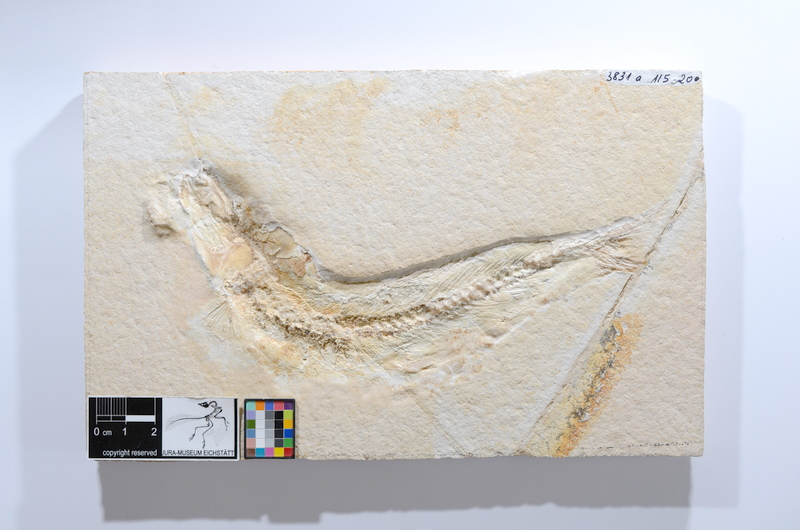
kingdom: Animalia
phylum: Chordata
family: Ascalaboidae
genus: Tharsis
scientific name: Tharsis dubius
